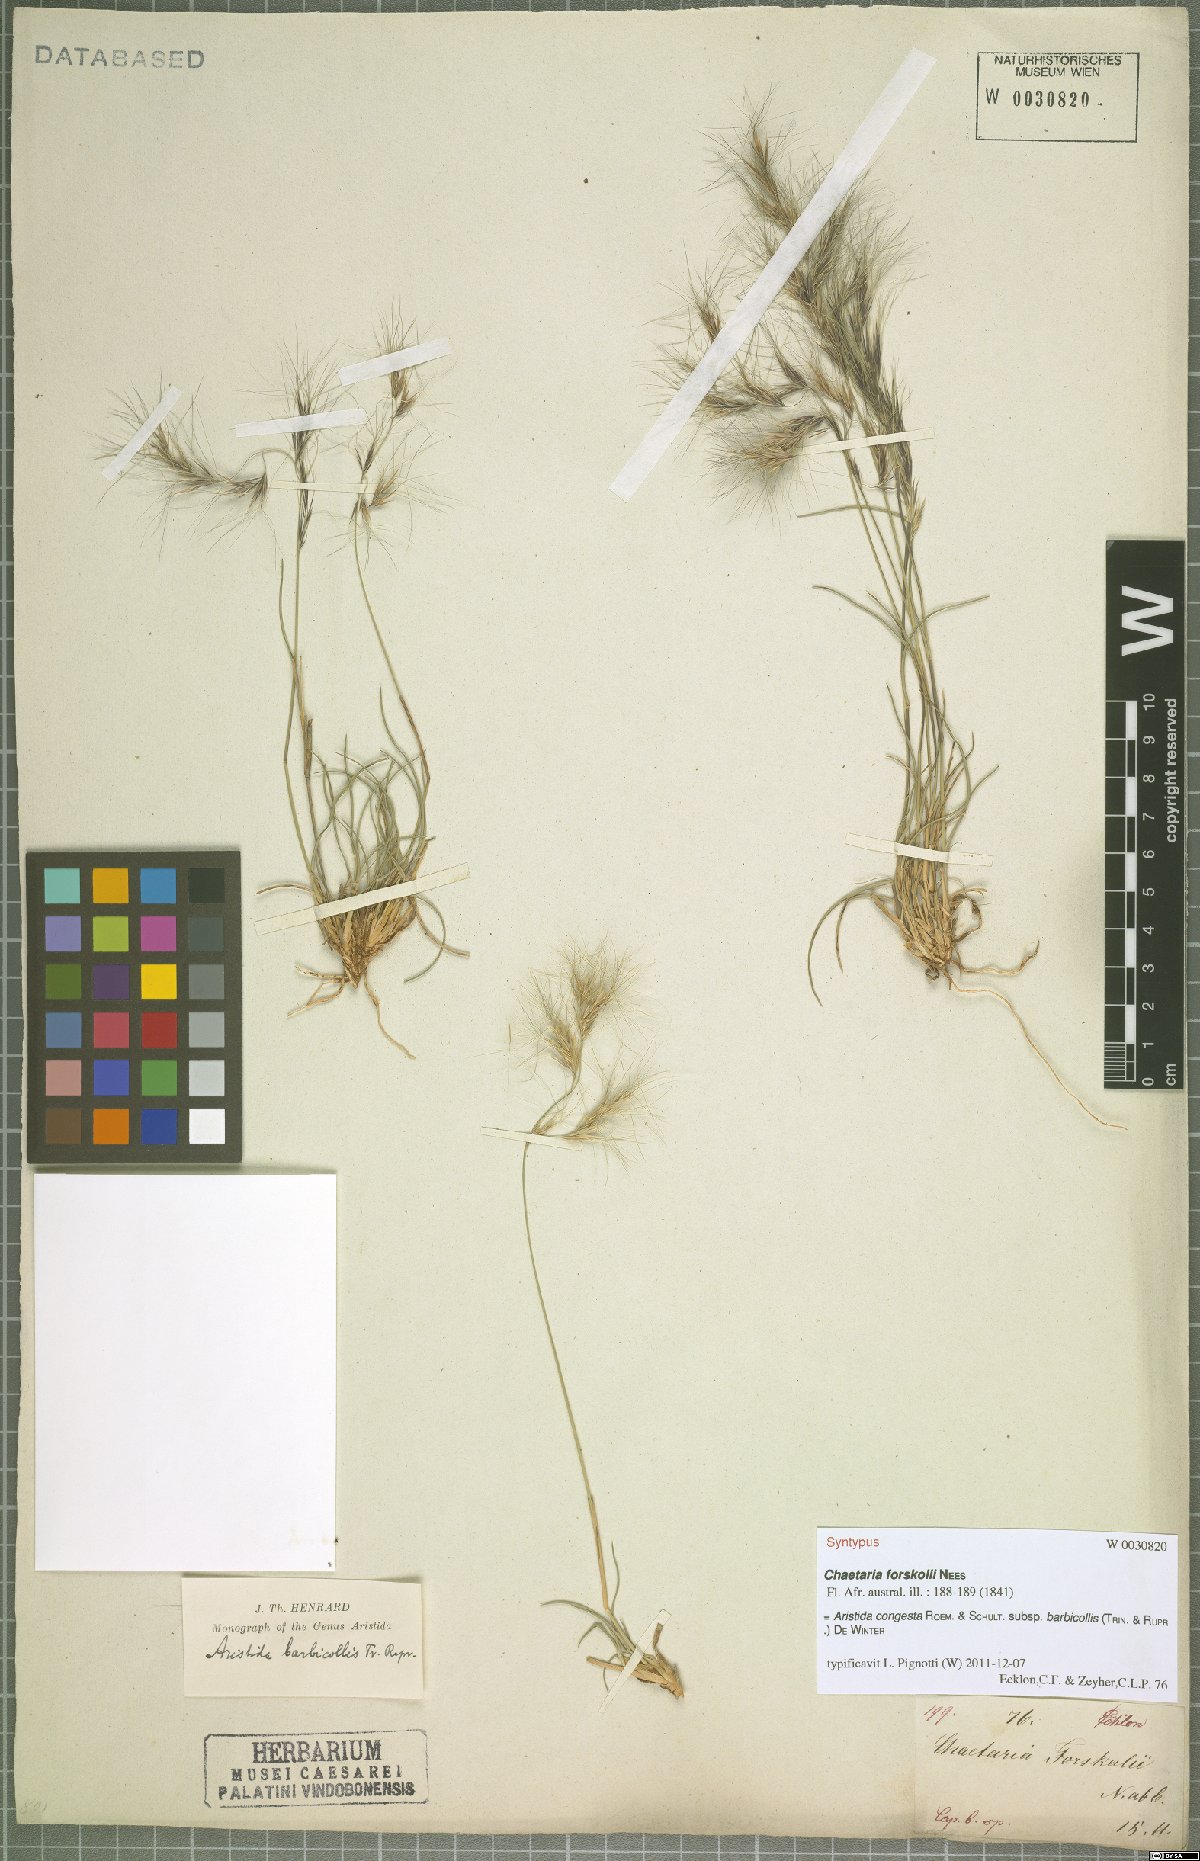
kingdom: Plantae
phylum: Tracheophyta
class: Liliopsida
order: Poales
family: Poaceae
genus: Aristida
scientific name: Aristida barbicollis
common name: Spreading prickle grass
